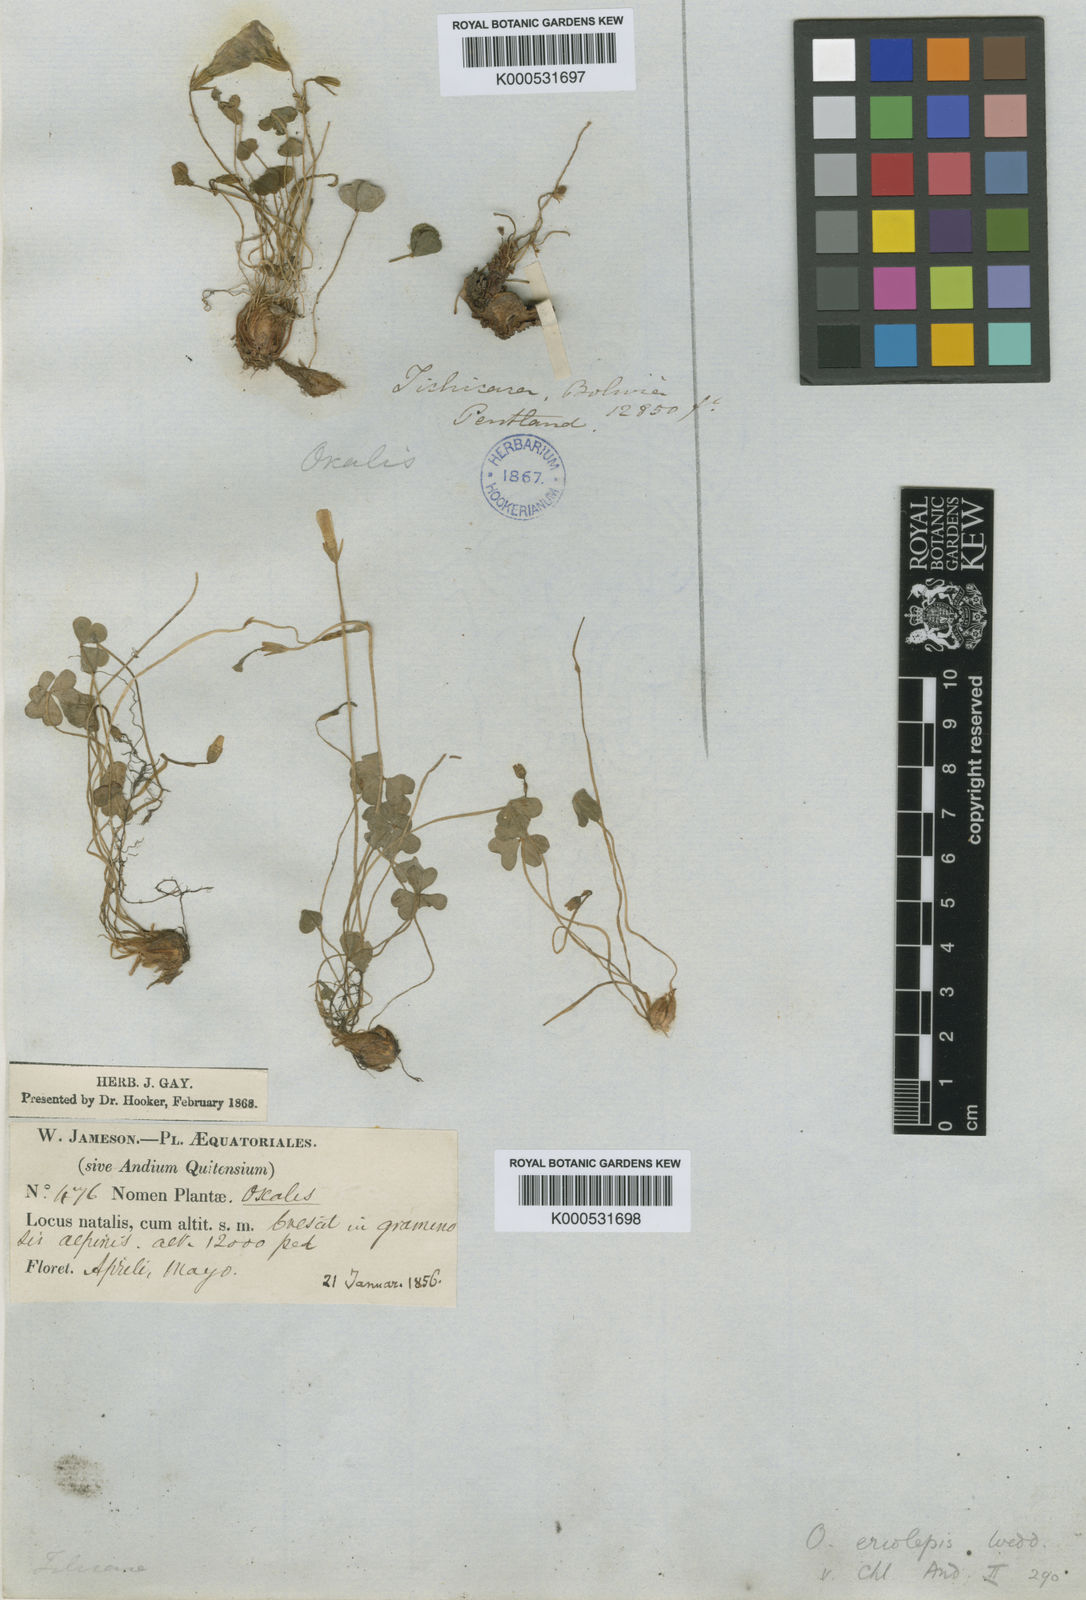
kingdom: Plantae
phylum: Tracheophyta
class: Magnoliopsida
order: Oxalidales
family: Oxalidaceae
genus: Oxalis
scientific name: Oxalis eriolepis
